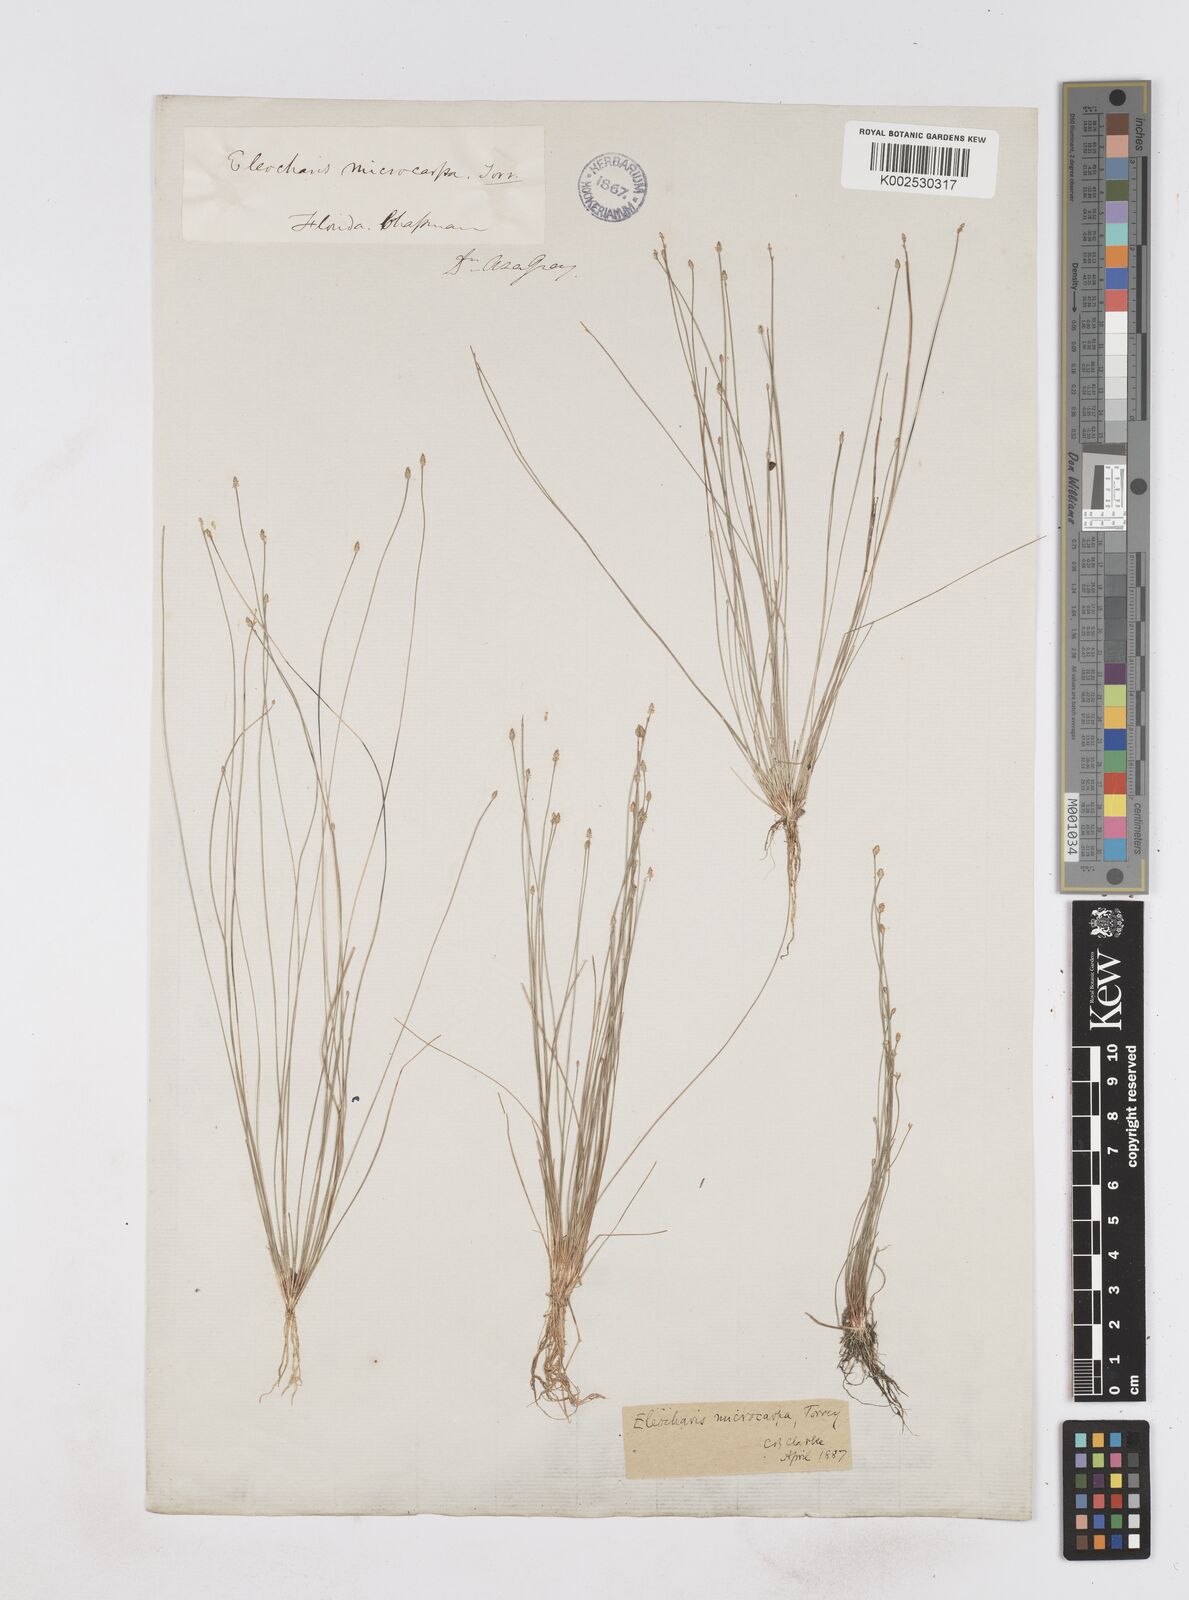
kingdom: Plantae
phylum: Tracheophyta
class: Liliopsida
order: Poales
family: Cyperaceae
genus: Eleocharis
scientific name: Eleocharis microcarpa
